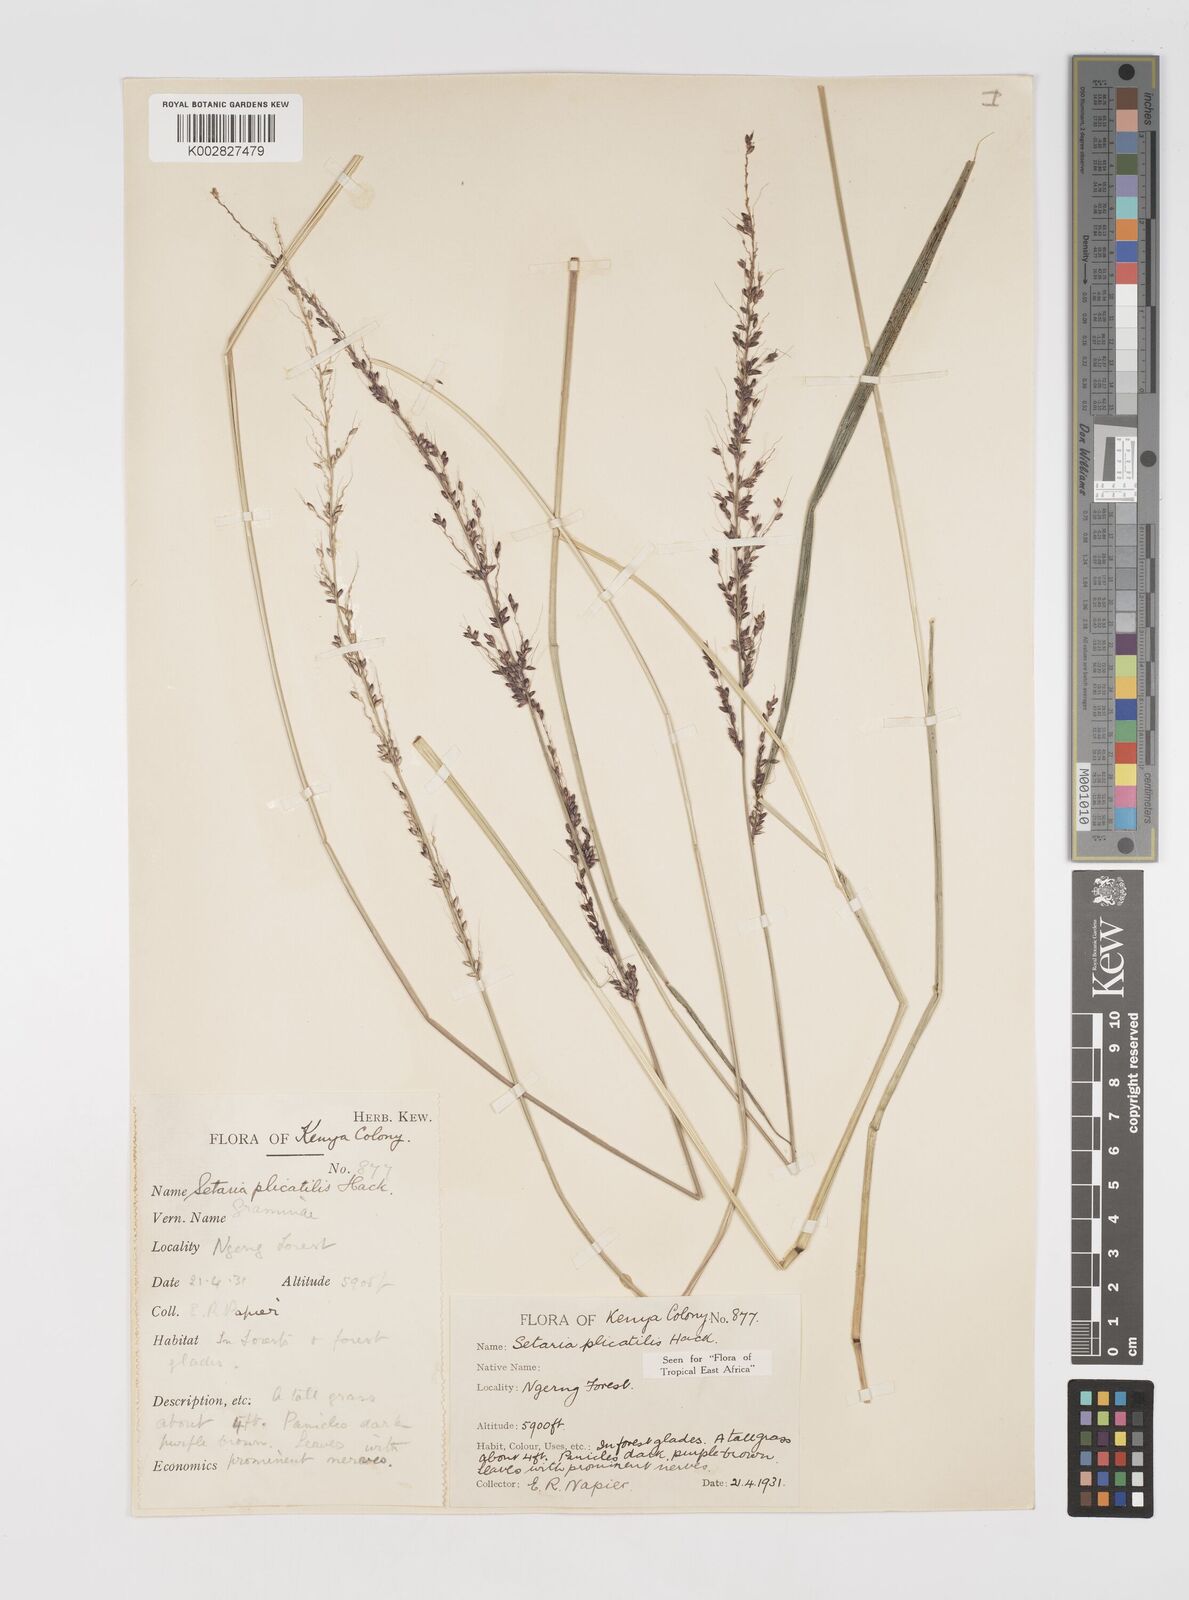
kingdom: Plantae
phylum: Tracheophyta
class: Liliopsida
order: Poales
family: Poaceae
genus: Setaria
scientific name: Setaria megaphylla
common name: Bigleaf bristlegrass
